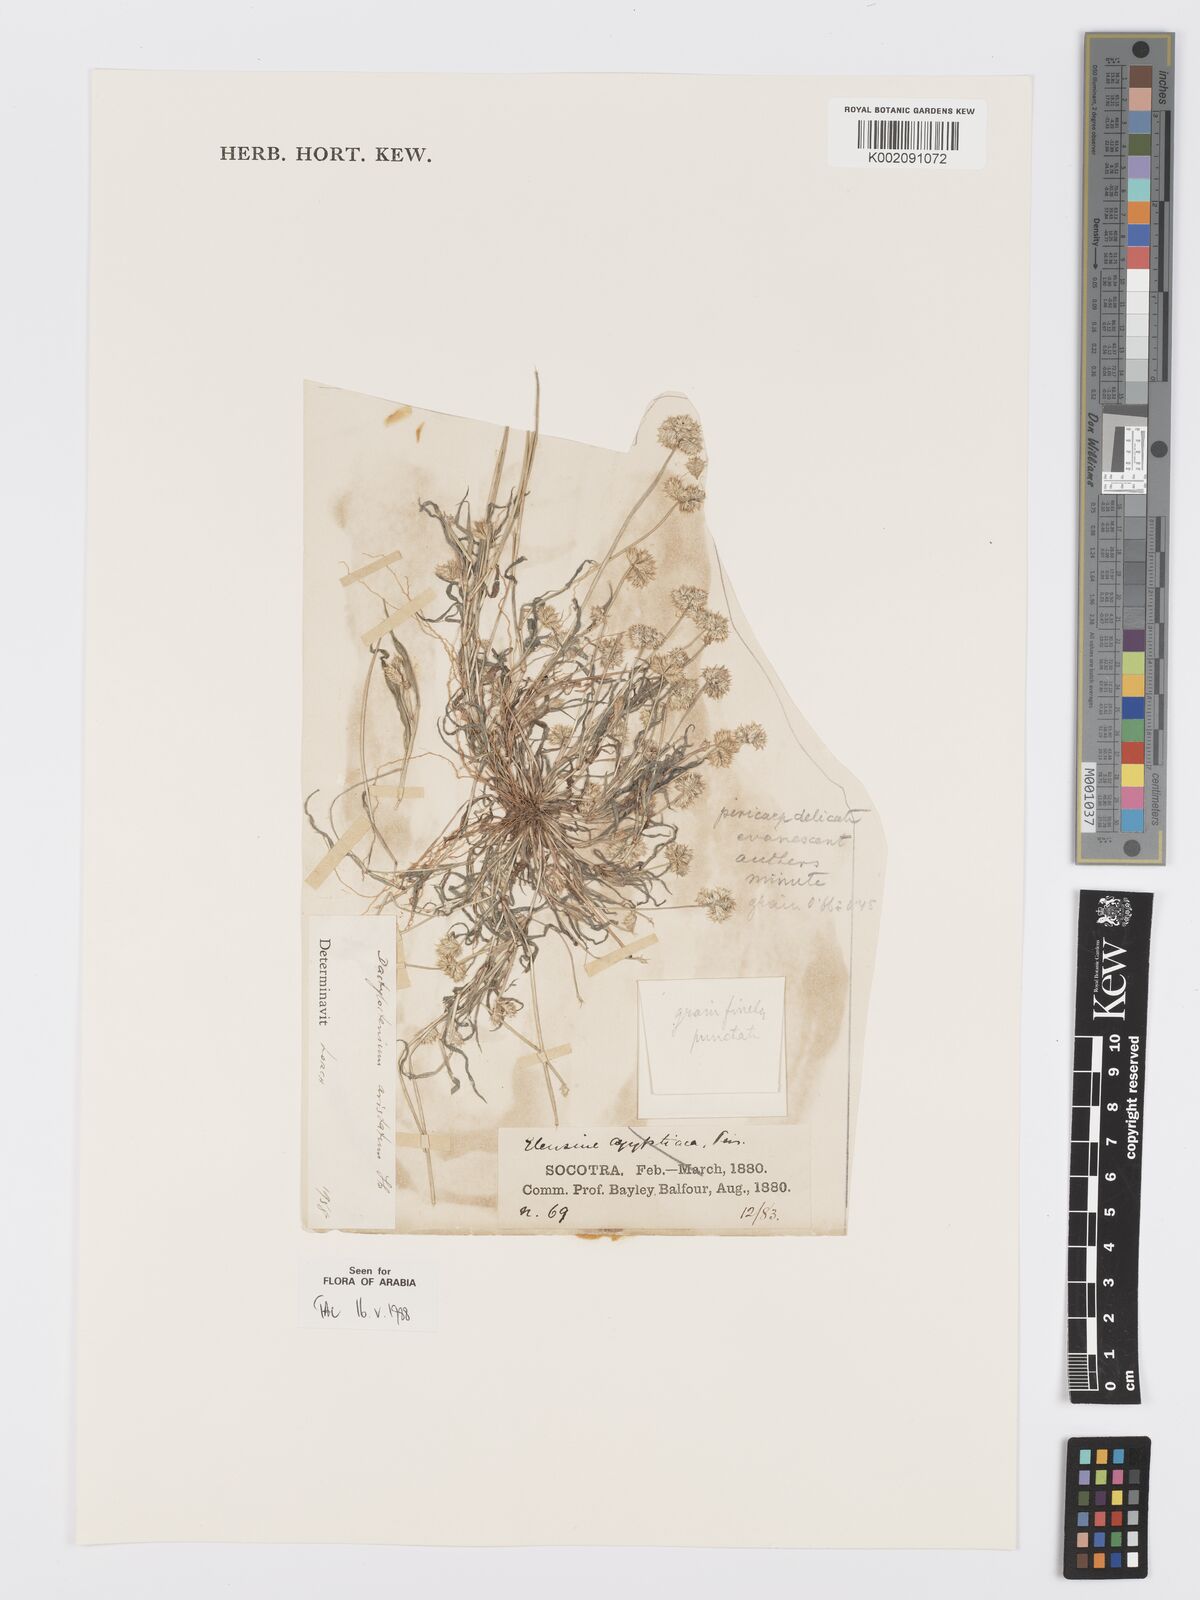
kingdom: Plantae
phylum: Tracheophyta
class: Liliopsida
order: Poales
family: Poaceae
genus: Dactyloctenium
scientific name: Dactyloctenium aristatum
